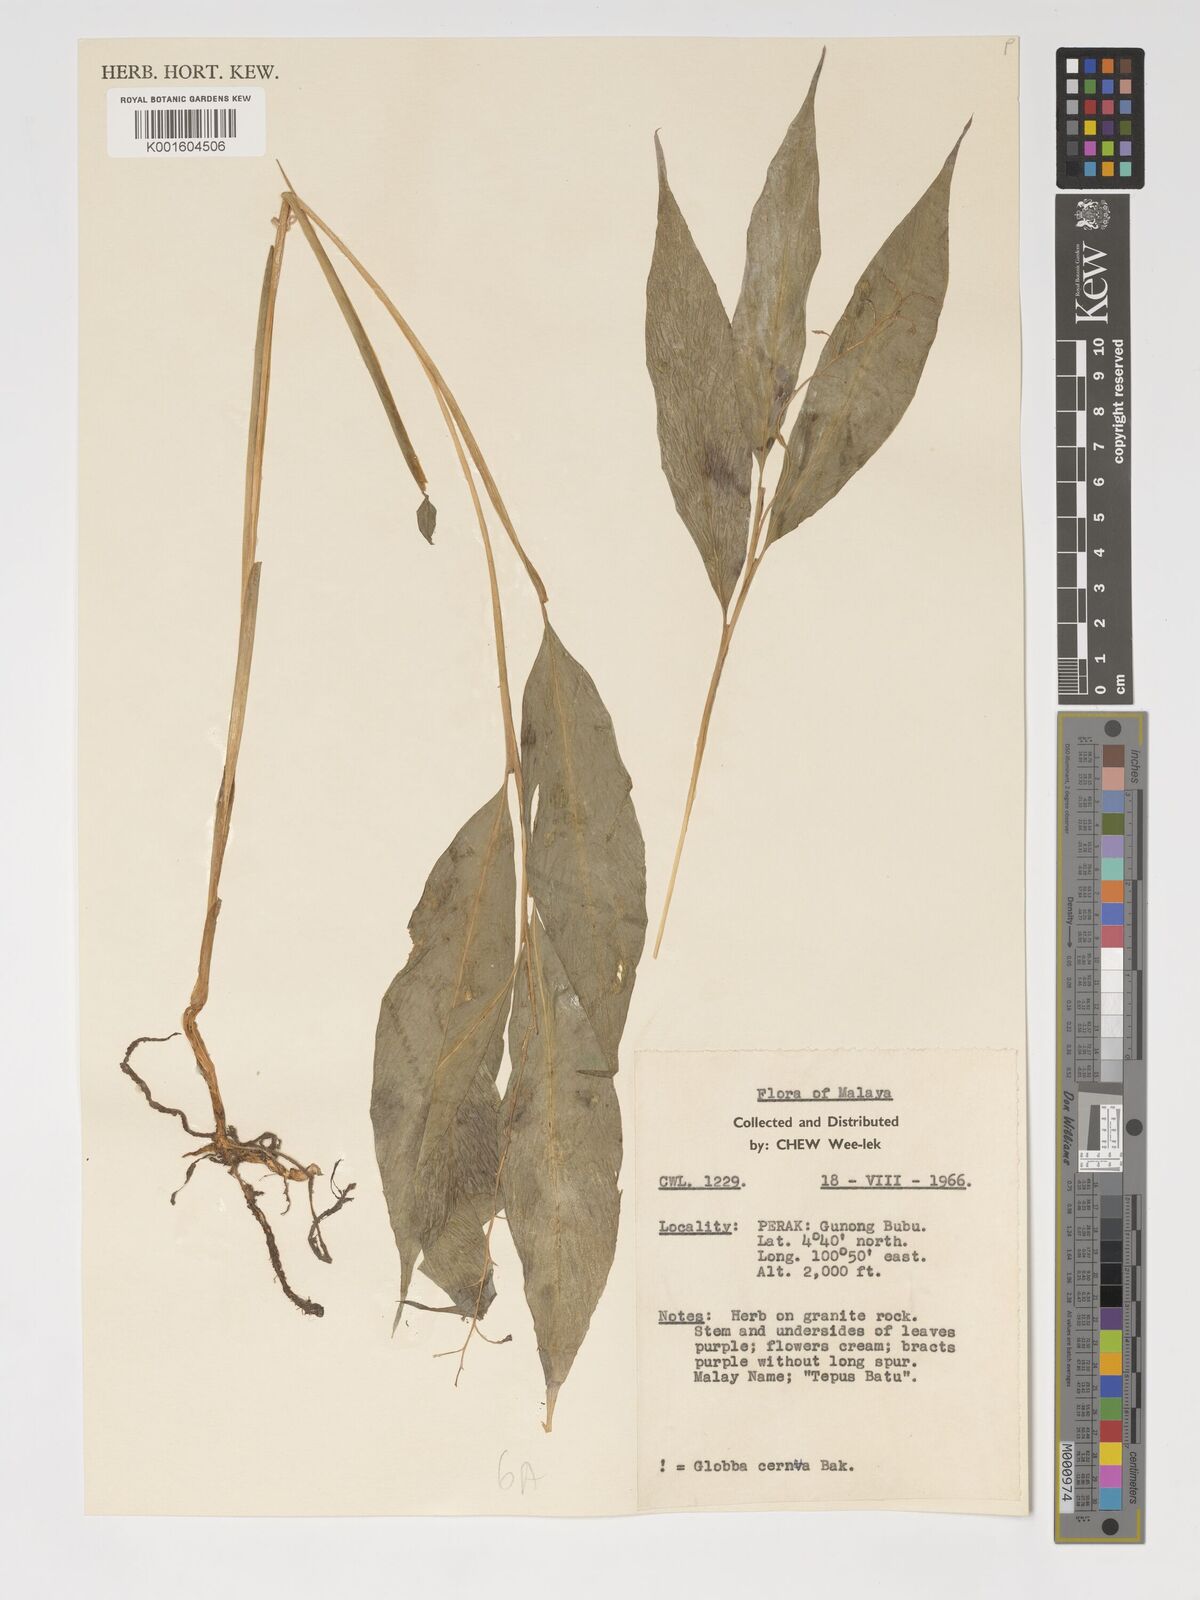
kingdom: Plantae
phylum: Tracheophyta
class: Liliopsida
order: Zingiberales
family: Zingiberaceae
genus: Globba
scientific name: Globba cernua
